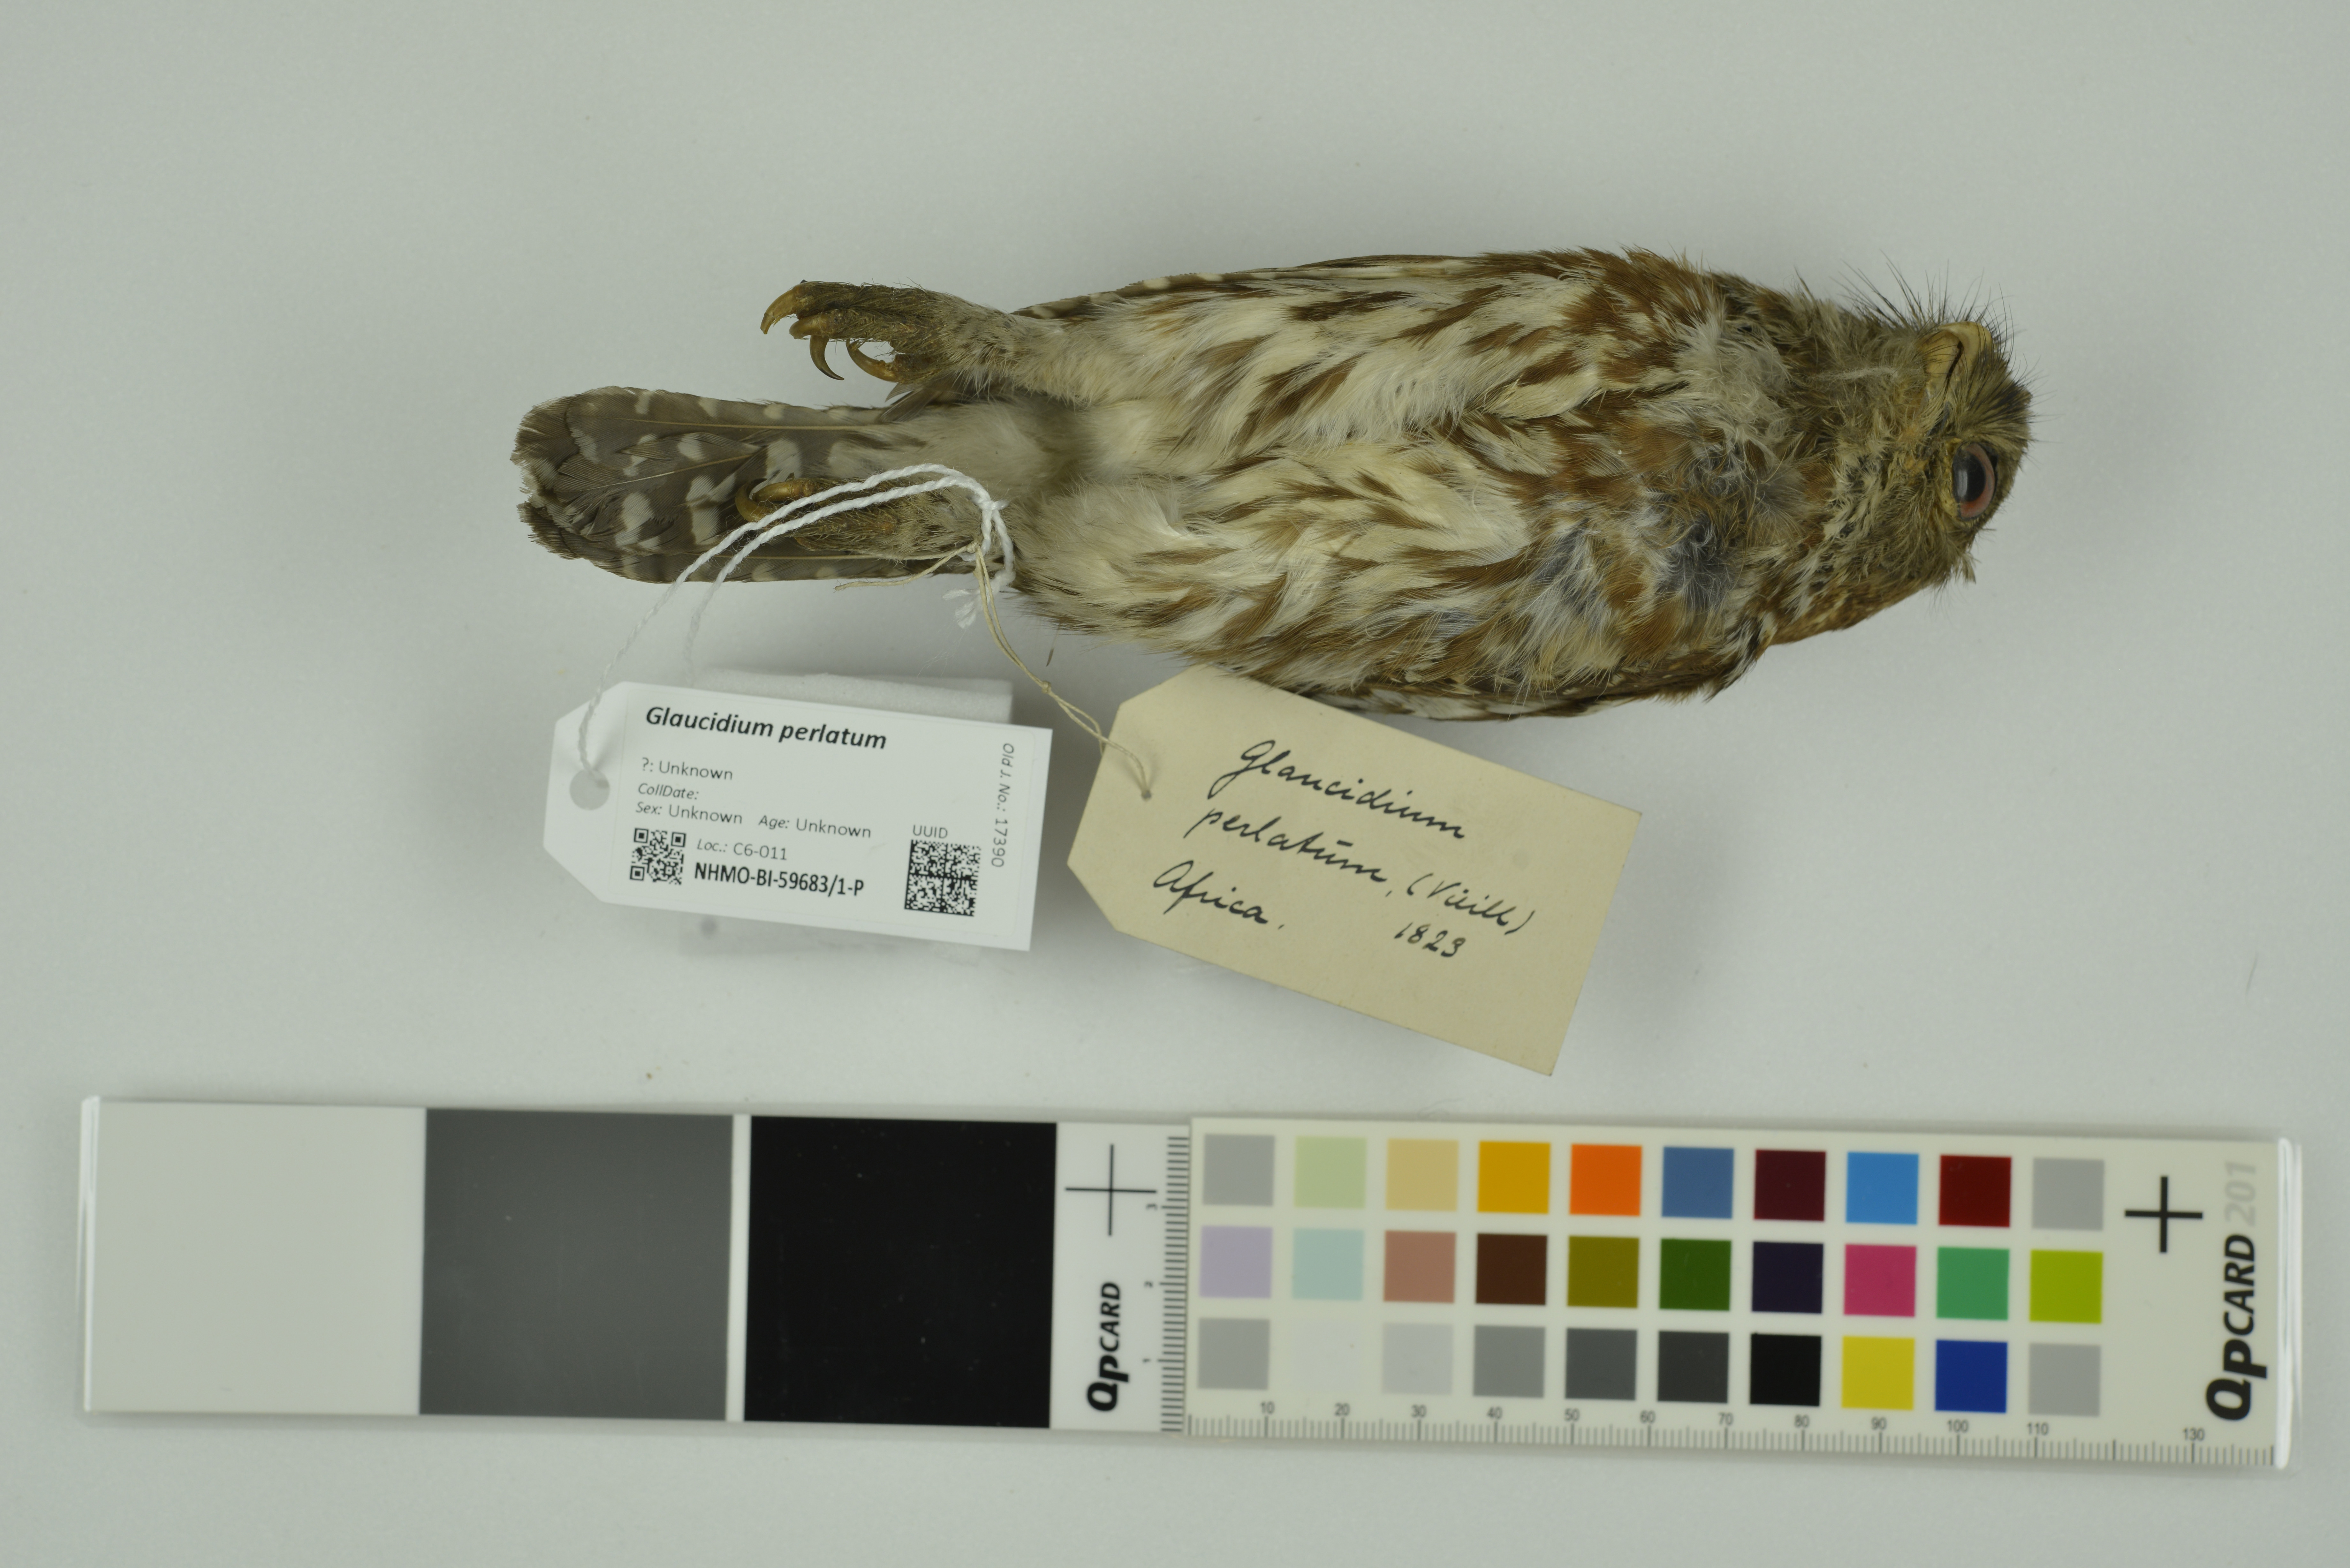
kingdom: Animalia
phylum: Chordata
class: Aves
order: Strigiformes
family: Strigidae
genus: Glaucidium
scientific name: Glaucidium perlatum
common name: Pearl-spotted owlet
